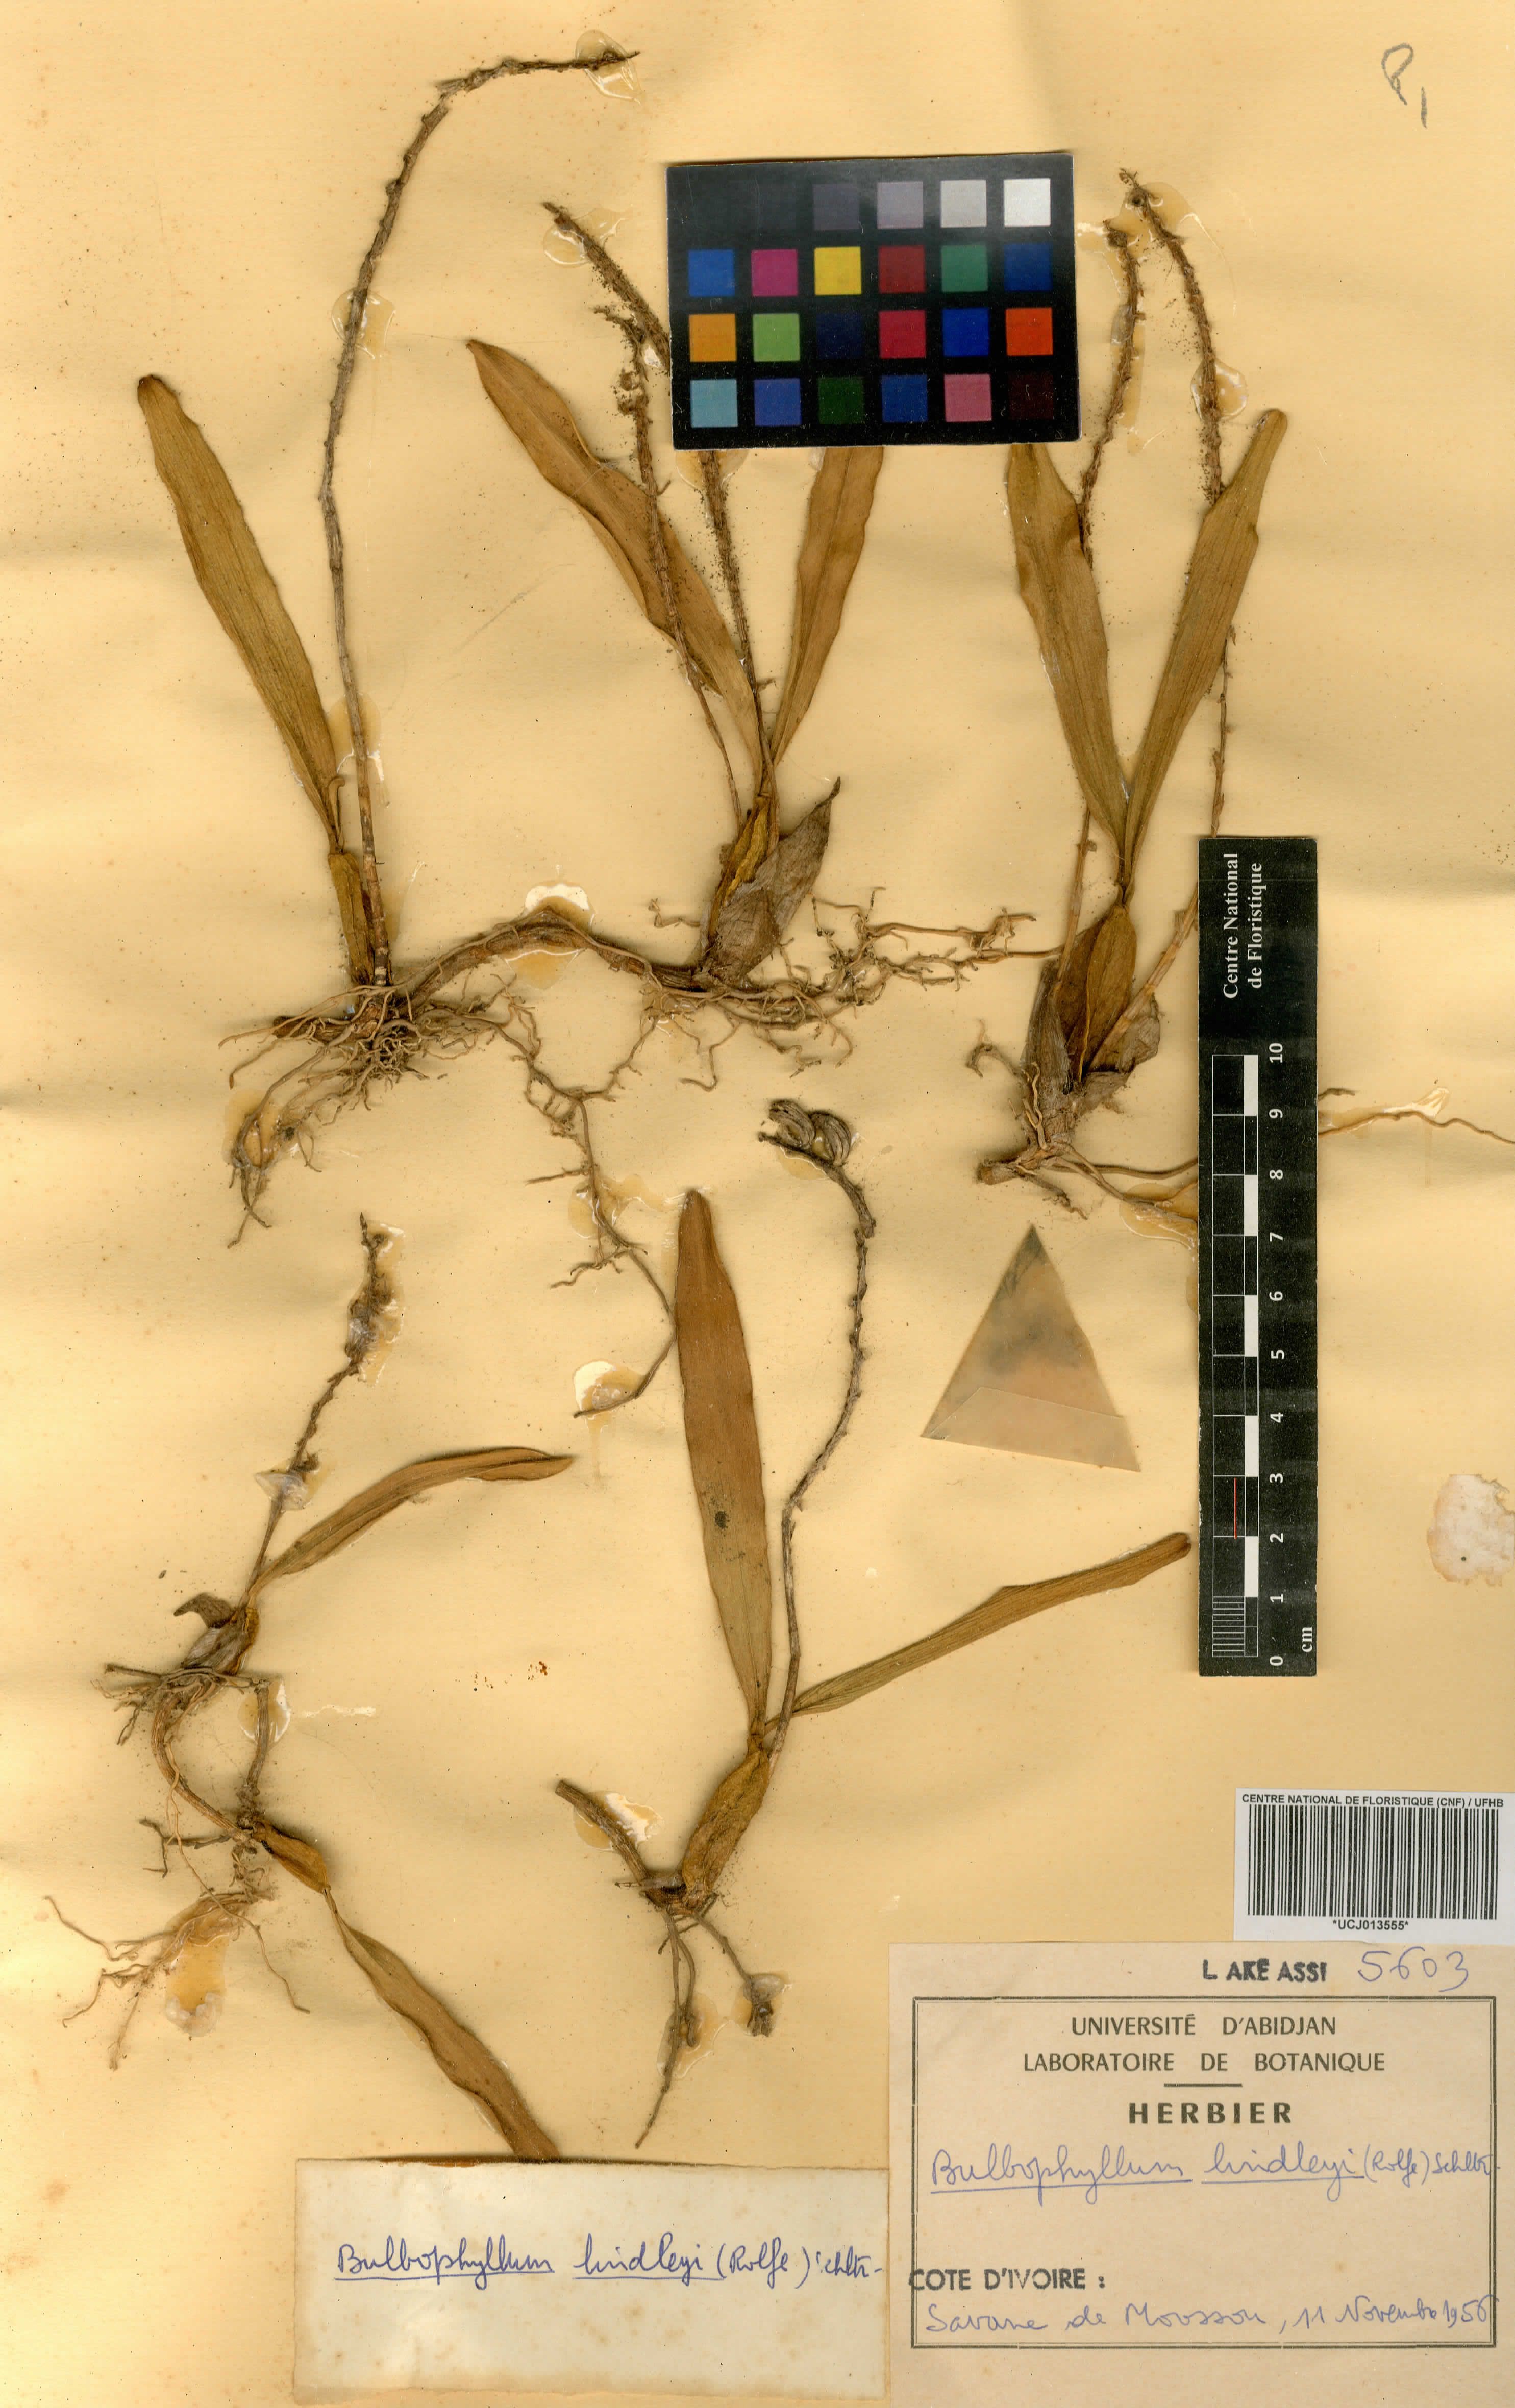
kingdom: Plantae
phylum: Tracheophyta
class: Liliopsida
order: Asparagales
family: Orchidaceae
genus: Bulbophyllum
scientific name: Bulbophyllum calyptratum
